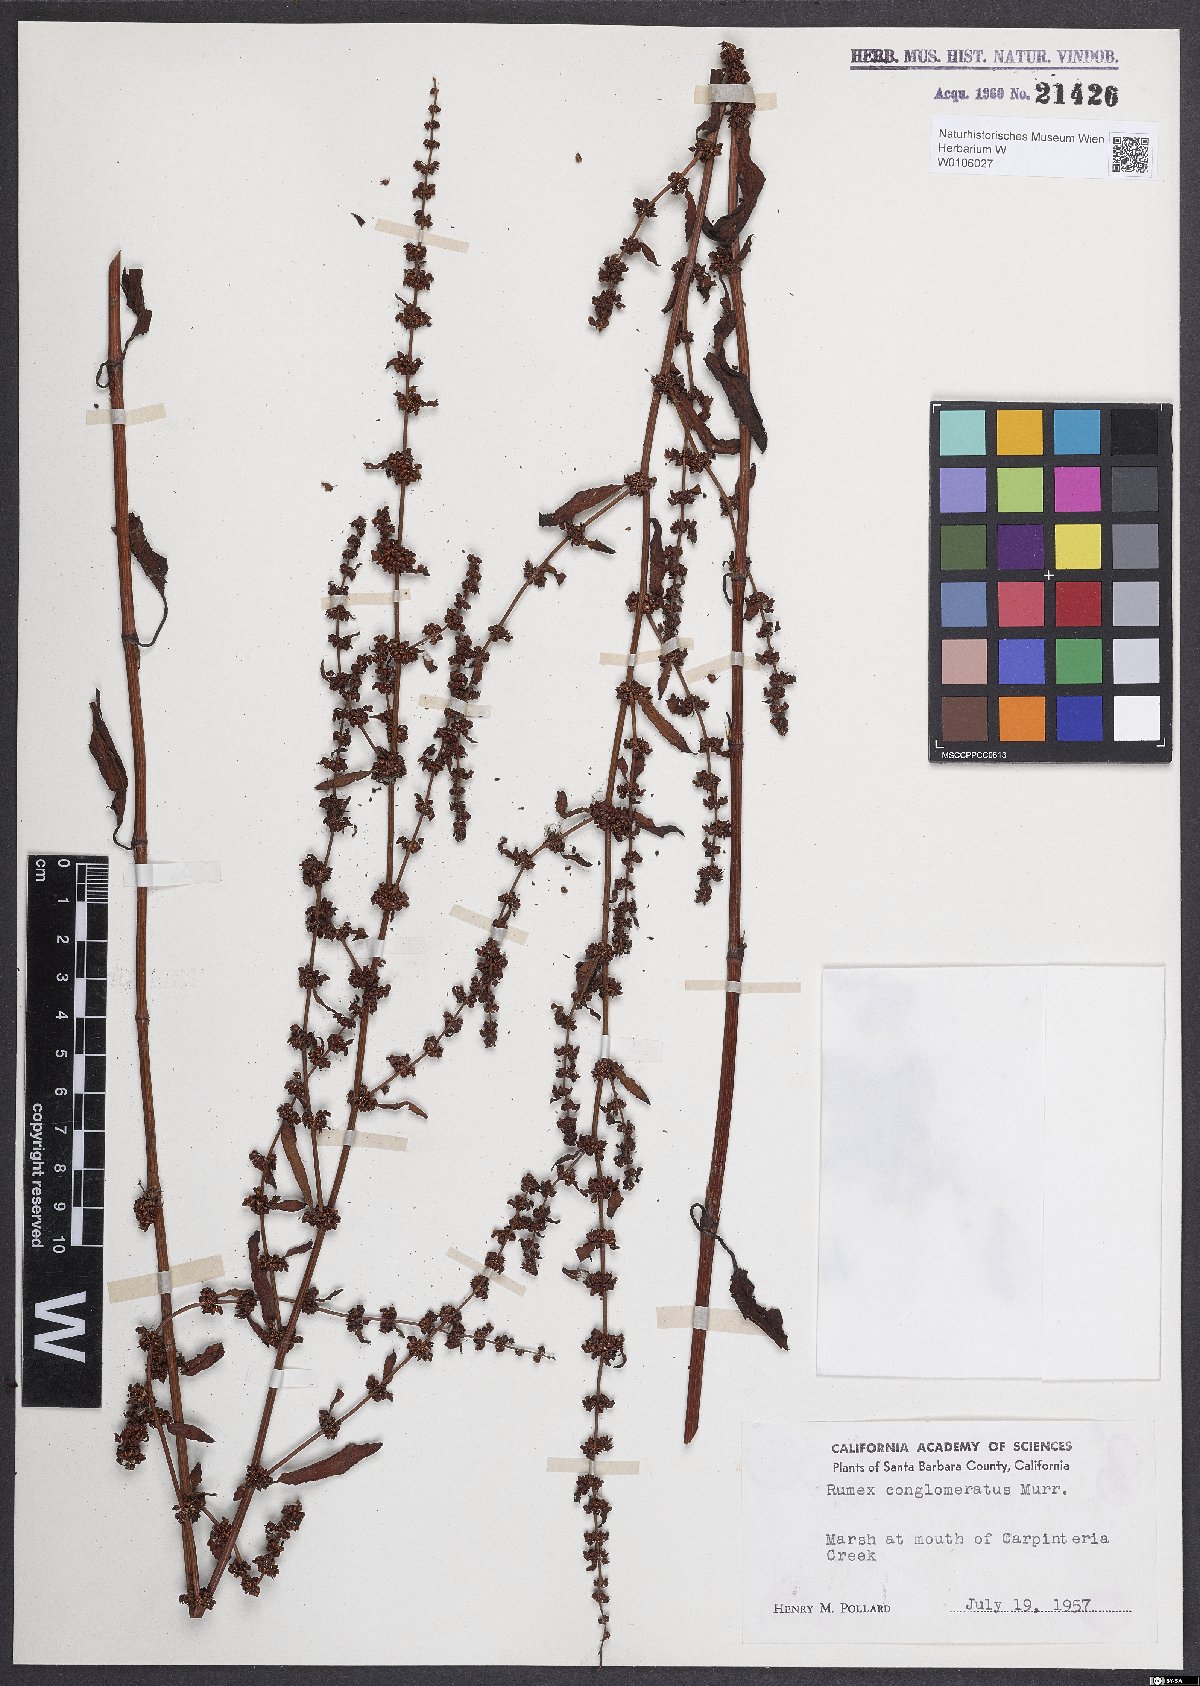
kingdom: Plantae
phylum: Tracheophyta
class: Magnoliopsida
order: Caryophyllales
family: Polygonaceae
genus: Rumex
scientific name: Rumex conglomeratus
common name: Clustered dock
